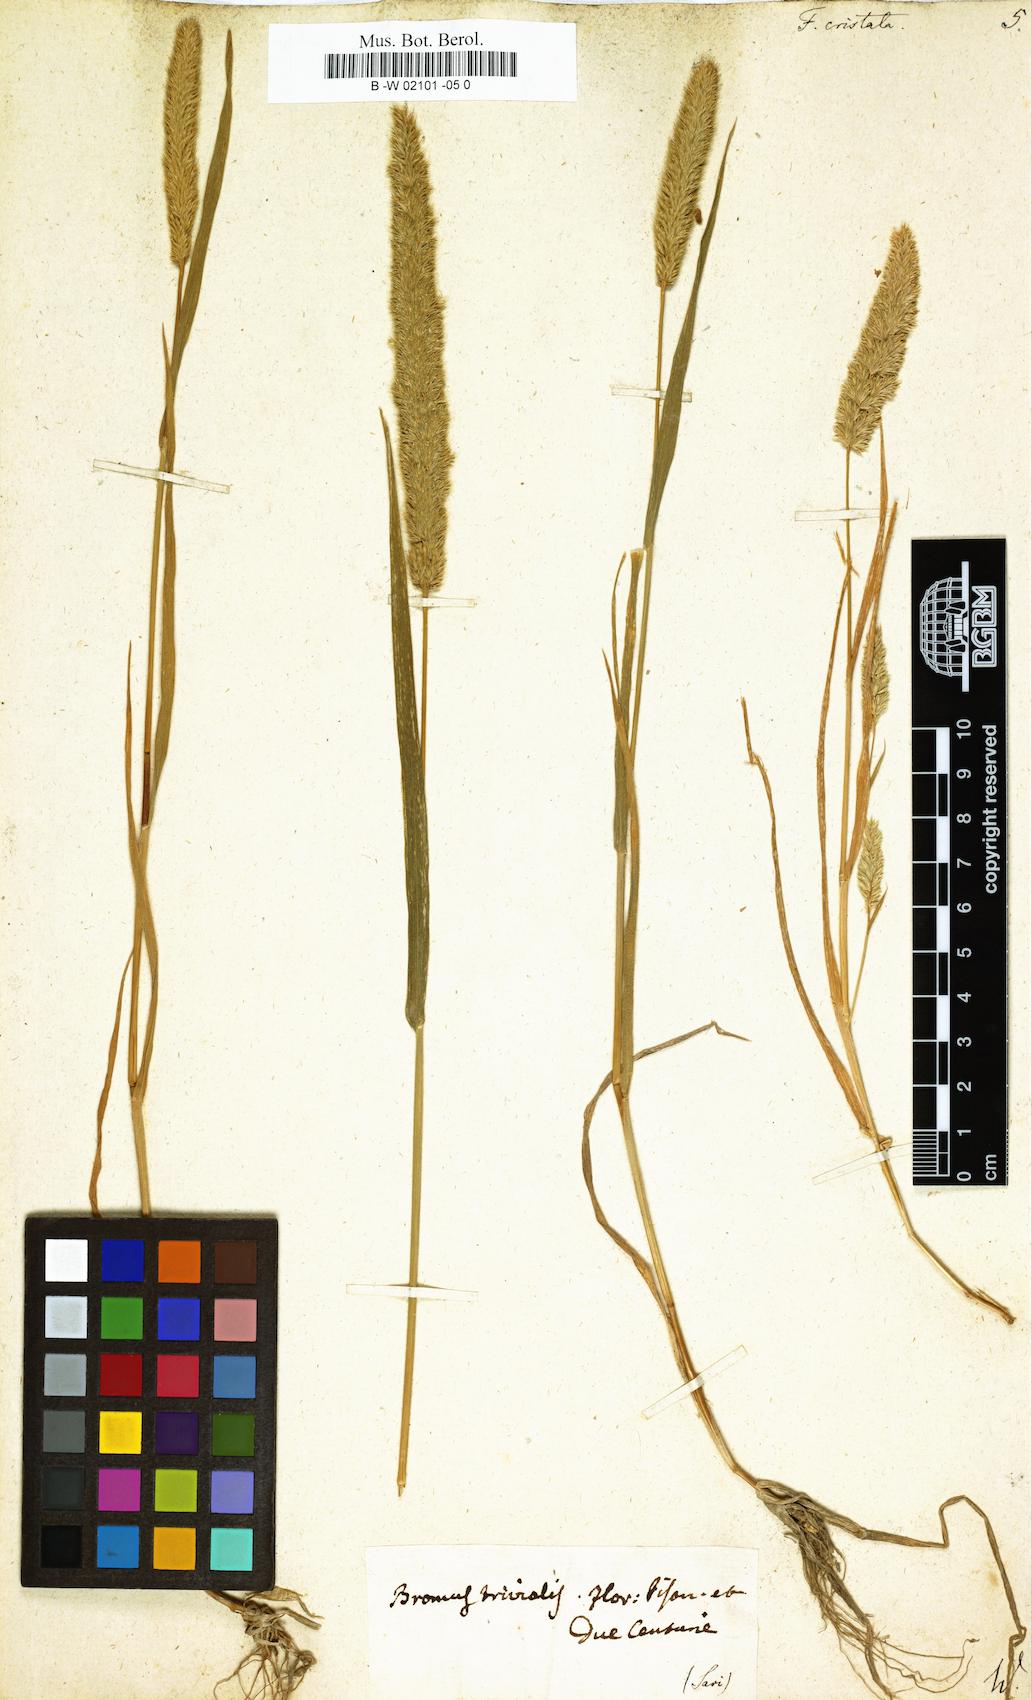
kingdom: Plantae
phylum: Tracheophyta
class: Liliopsida
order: Poales
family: Poaceae
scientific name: Poaceae
